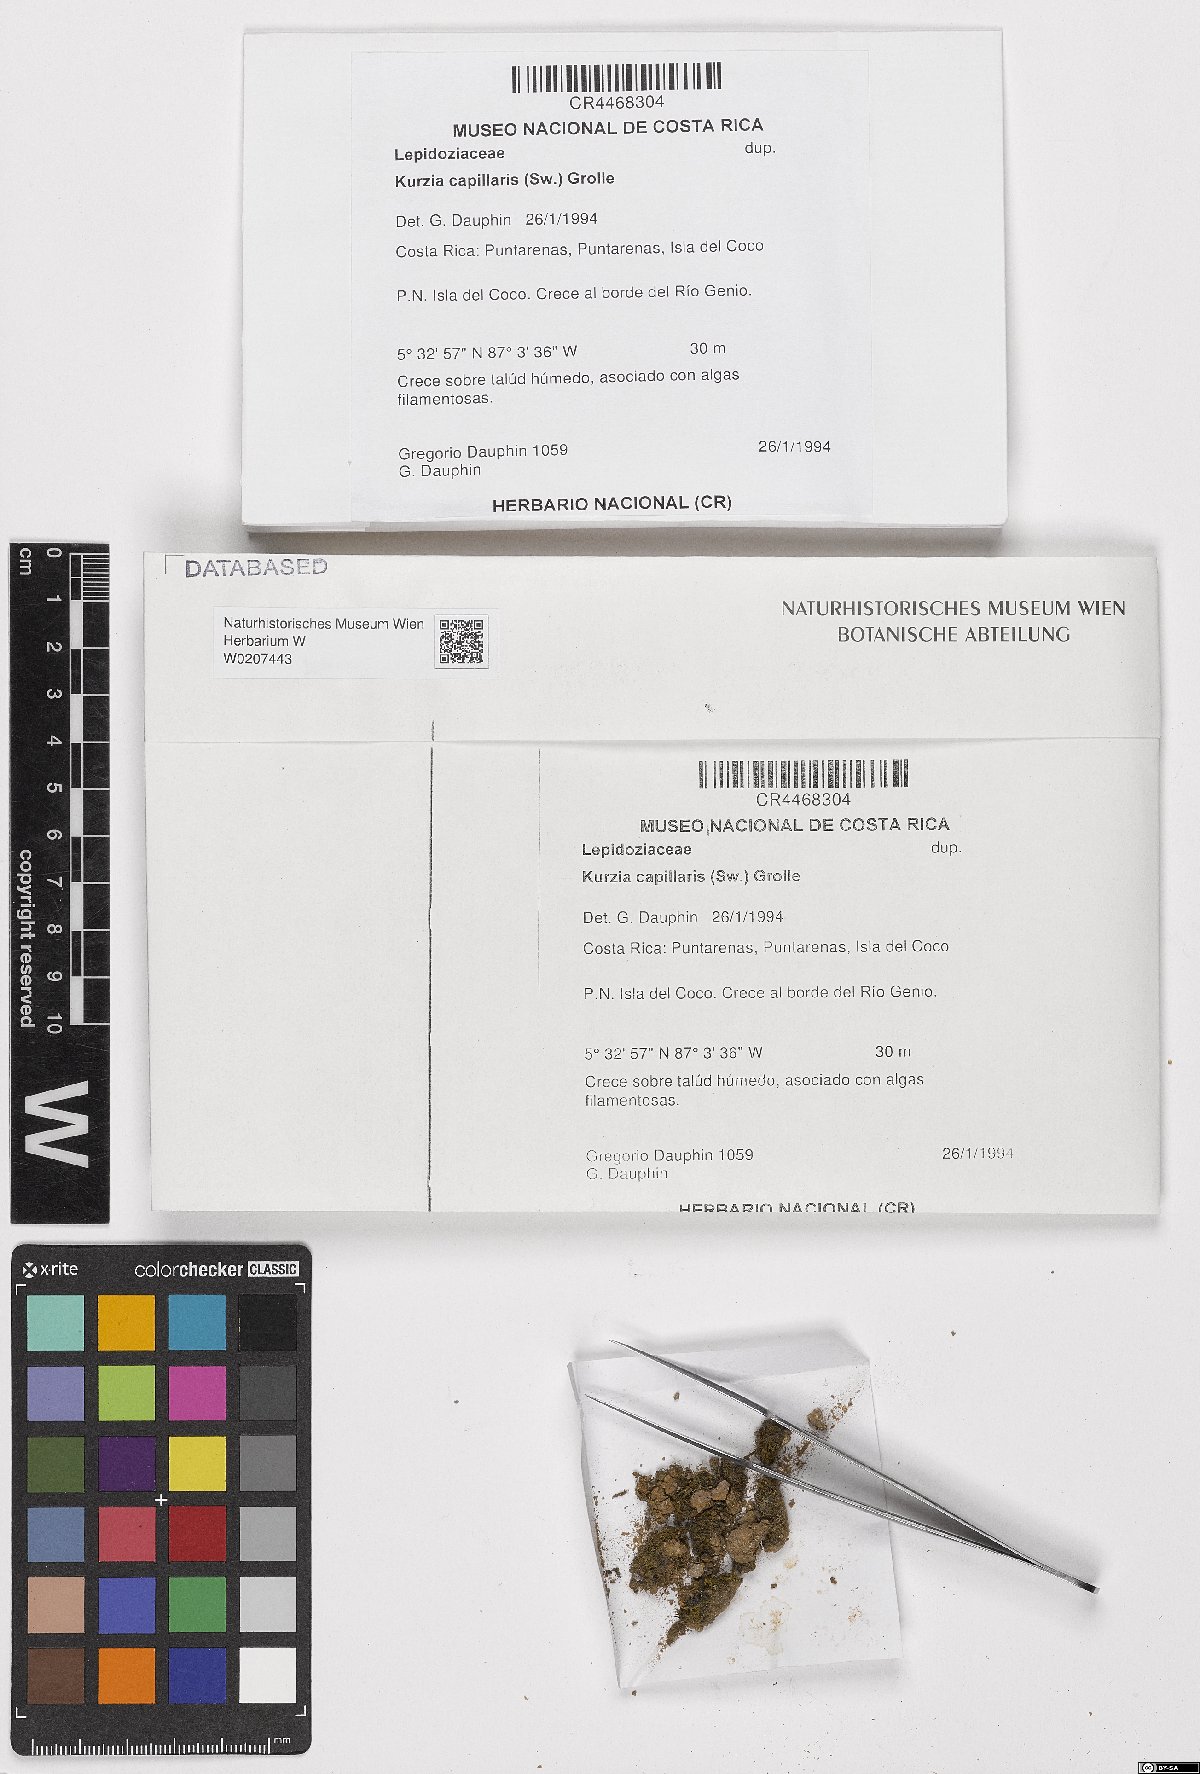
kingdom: Plantae
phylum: Marchantiophyta
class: Jungermanniopsida
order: Jungermanniales
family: Lepidoziaceae
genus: Kurzia
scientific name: Kurzia capillaris
